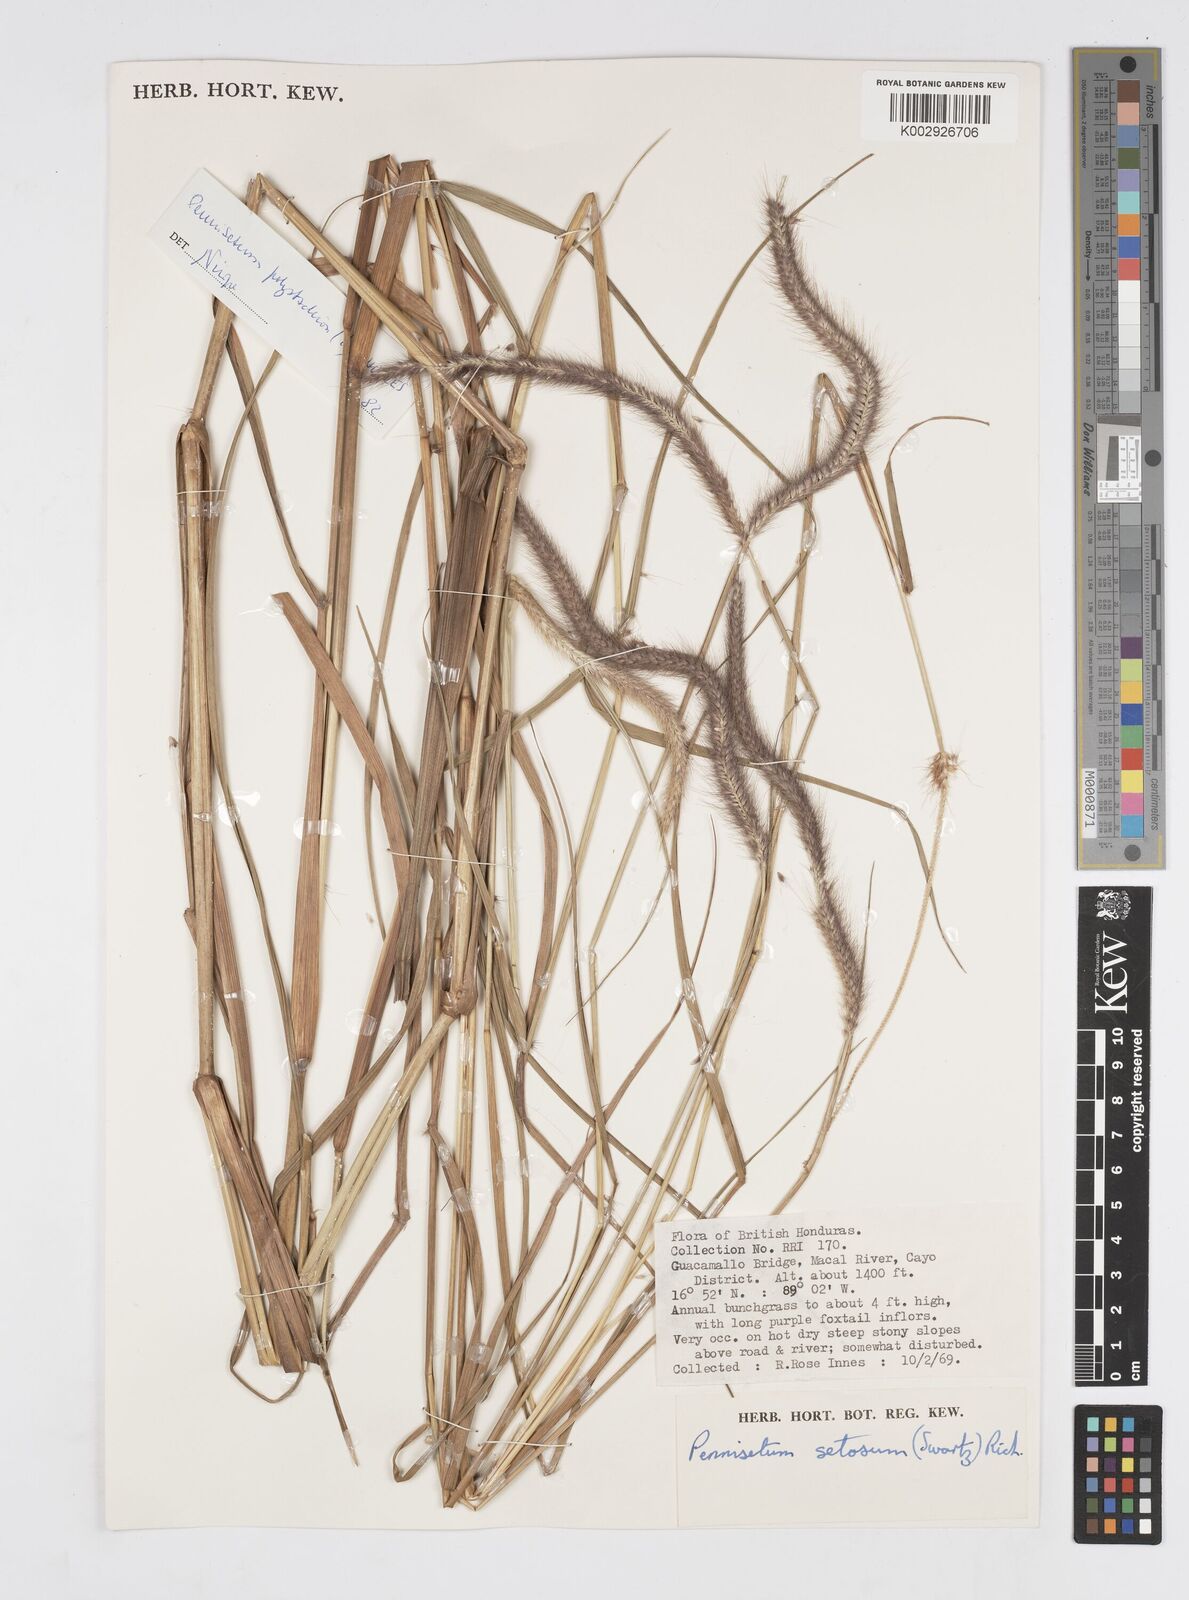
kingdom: Plantae
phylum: Tracheophyta
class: Liliopsida
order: Poales
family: Poaceae
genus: Cenchrus
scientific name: Cenchrus setosus
